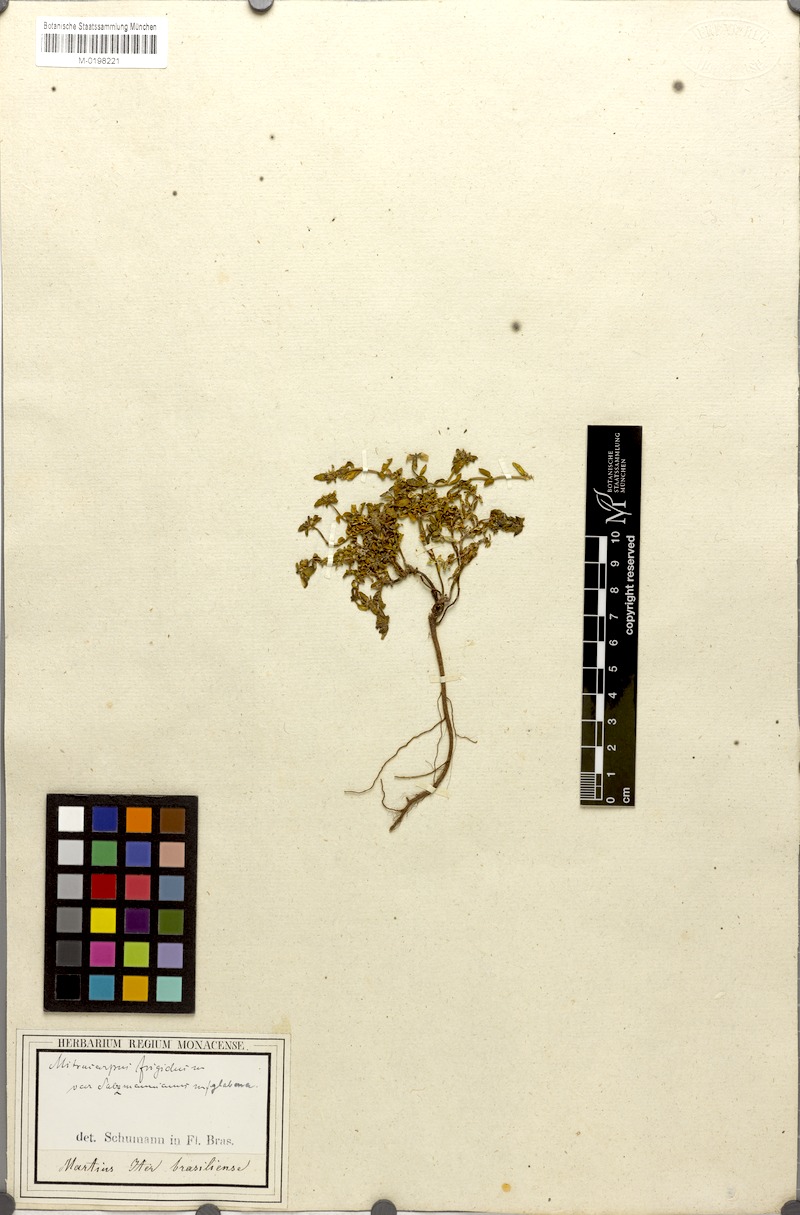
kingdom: Plantae
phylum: Tracheophyta
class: Magnoliopsida
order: Gentianales
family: Rubiaceae
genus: Mitracarpus
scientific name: Mitracarpus salzmannianus
